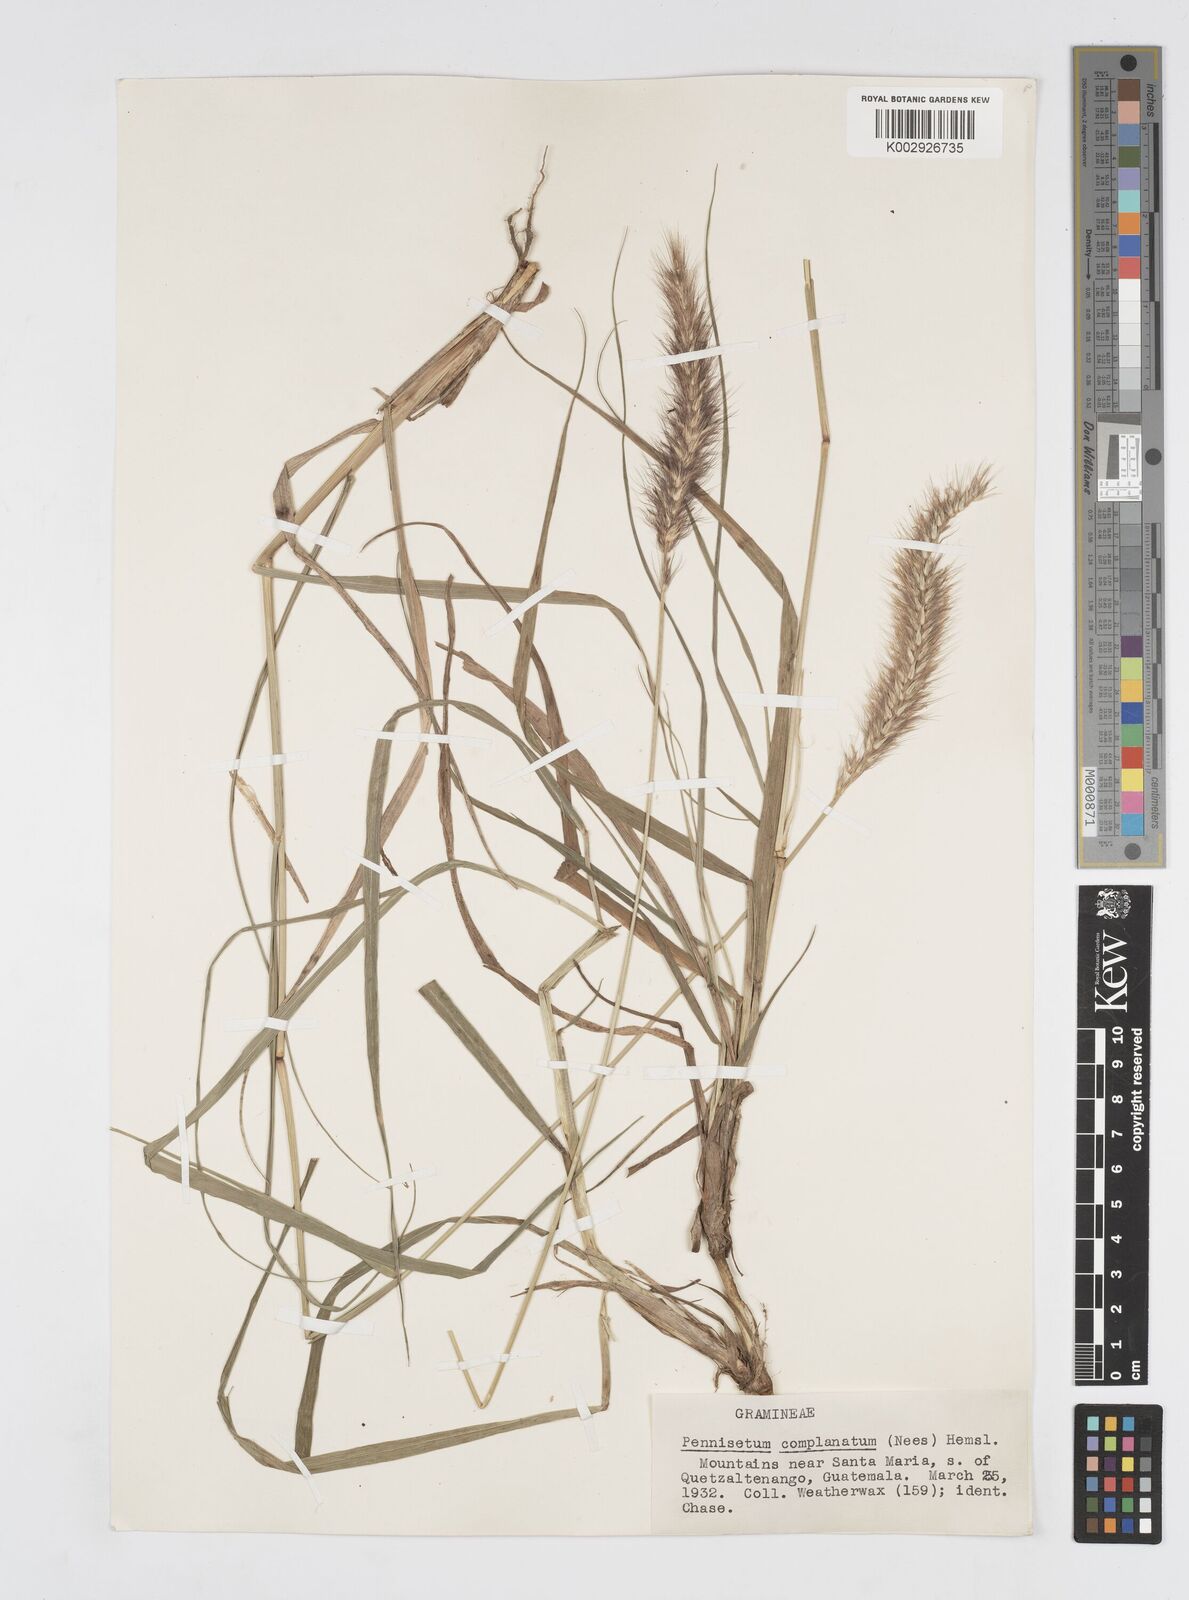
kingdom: Plantae
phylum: Tracheophyta
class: Liliopsida
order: Poales
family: Poaceae
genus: Cenchrus
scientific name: Cenchrus complanatus
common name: Nicaraguan fountaingrass
